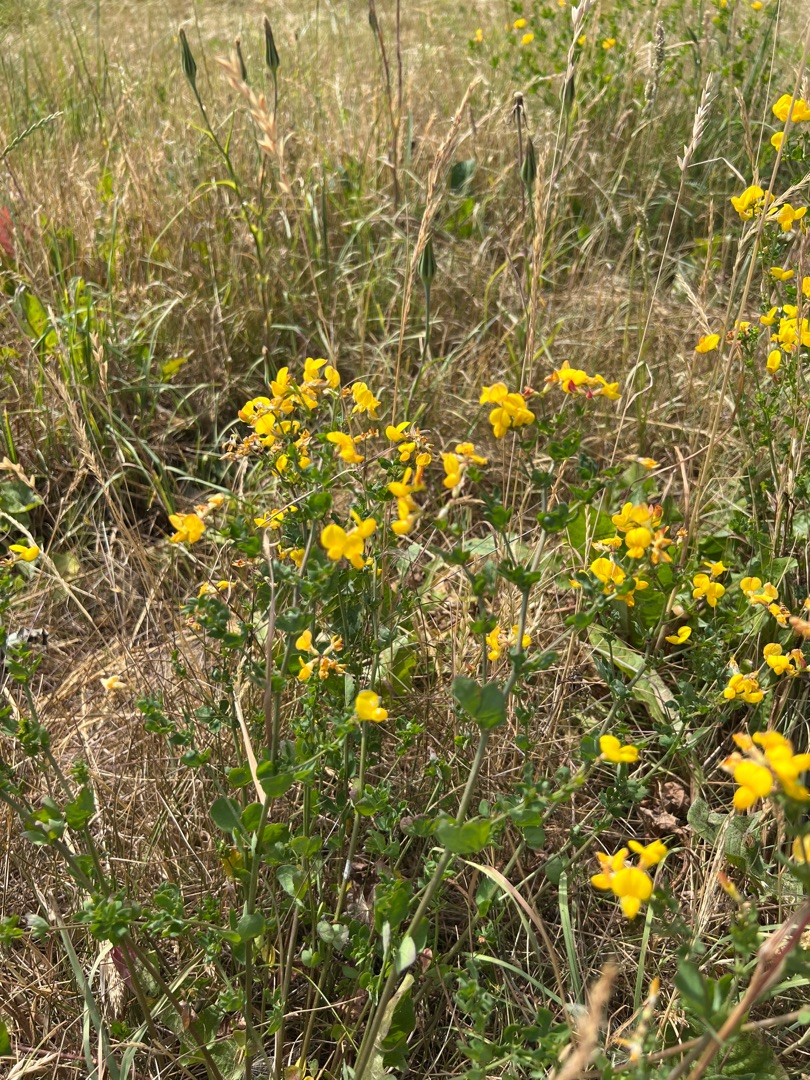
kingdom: Plantae
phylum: Tracheophyta
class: Magnoliopsida
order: Fabales
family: Fabaceae
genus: Lotus
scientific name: Lotus corniculatus
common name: Almindelig kællingetand
